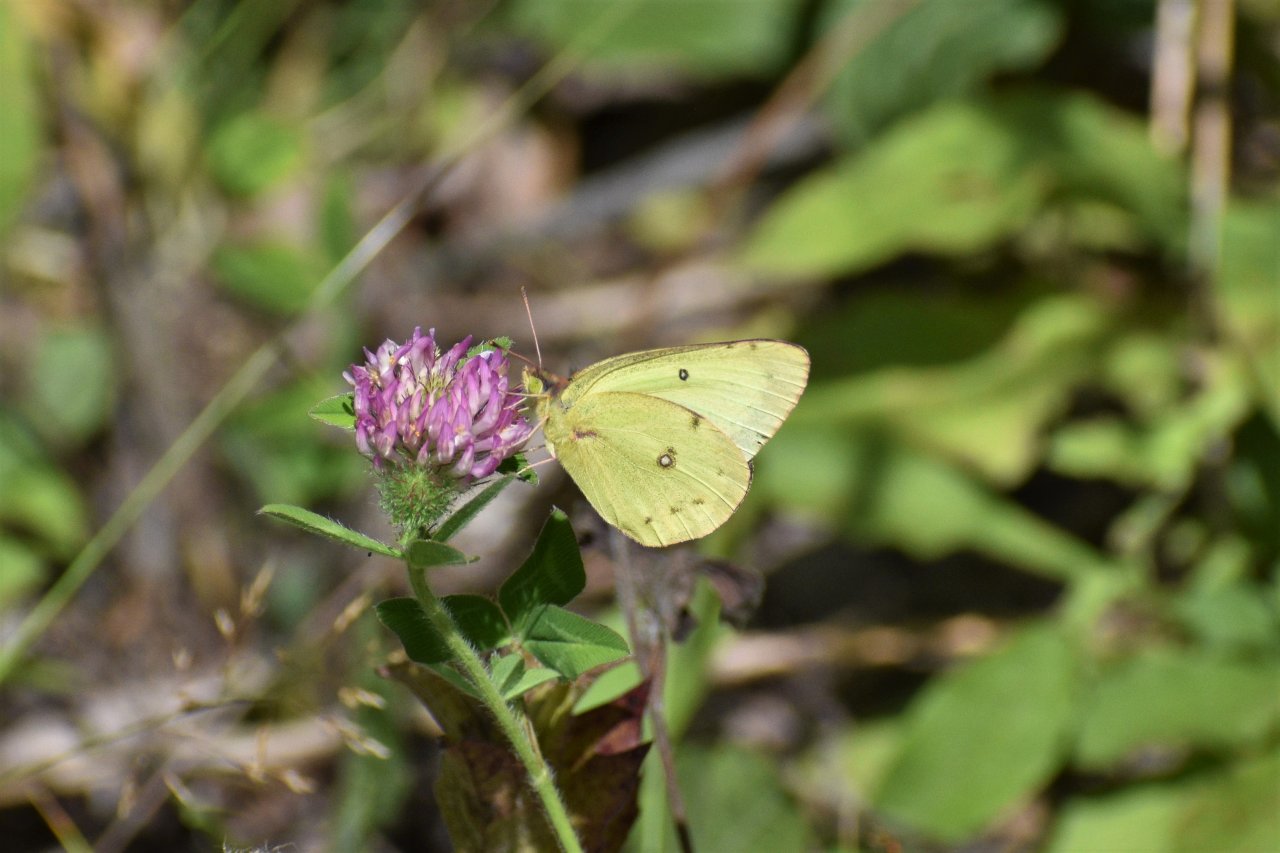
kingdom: Animalia
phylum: Arthropoda
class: Insecta
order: Lepidoptera
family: Pieridae
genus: Colias
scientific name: Colias philodice
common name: Clouded Sulphur
